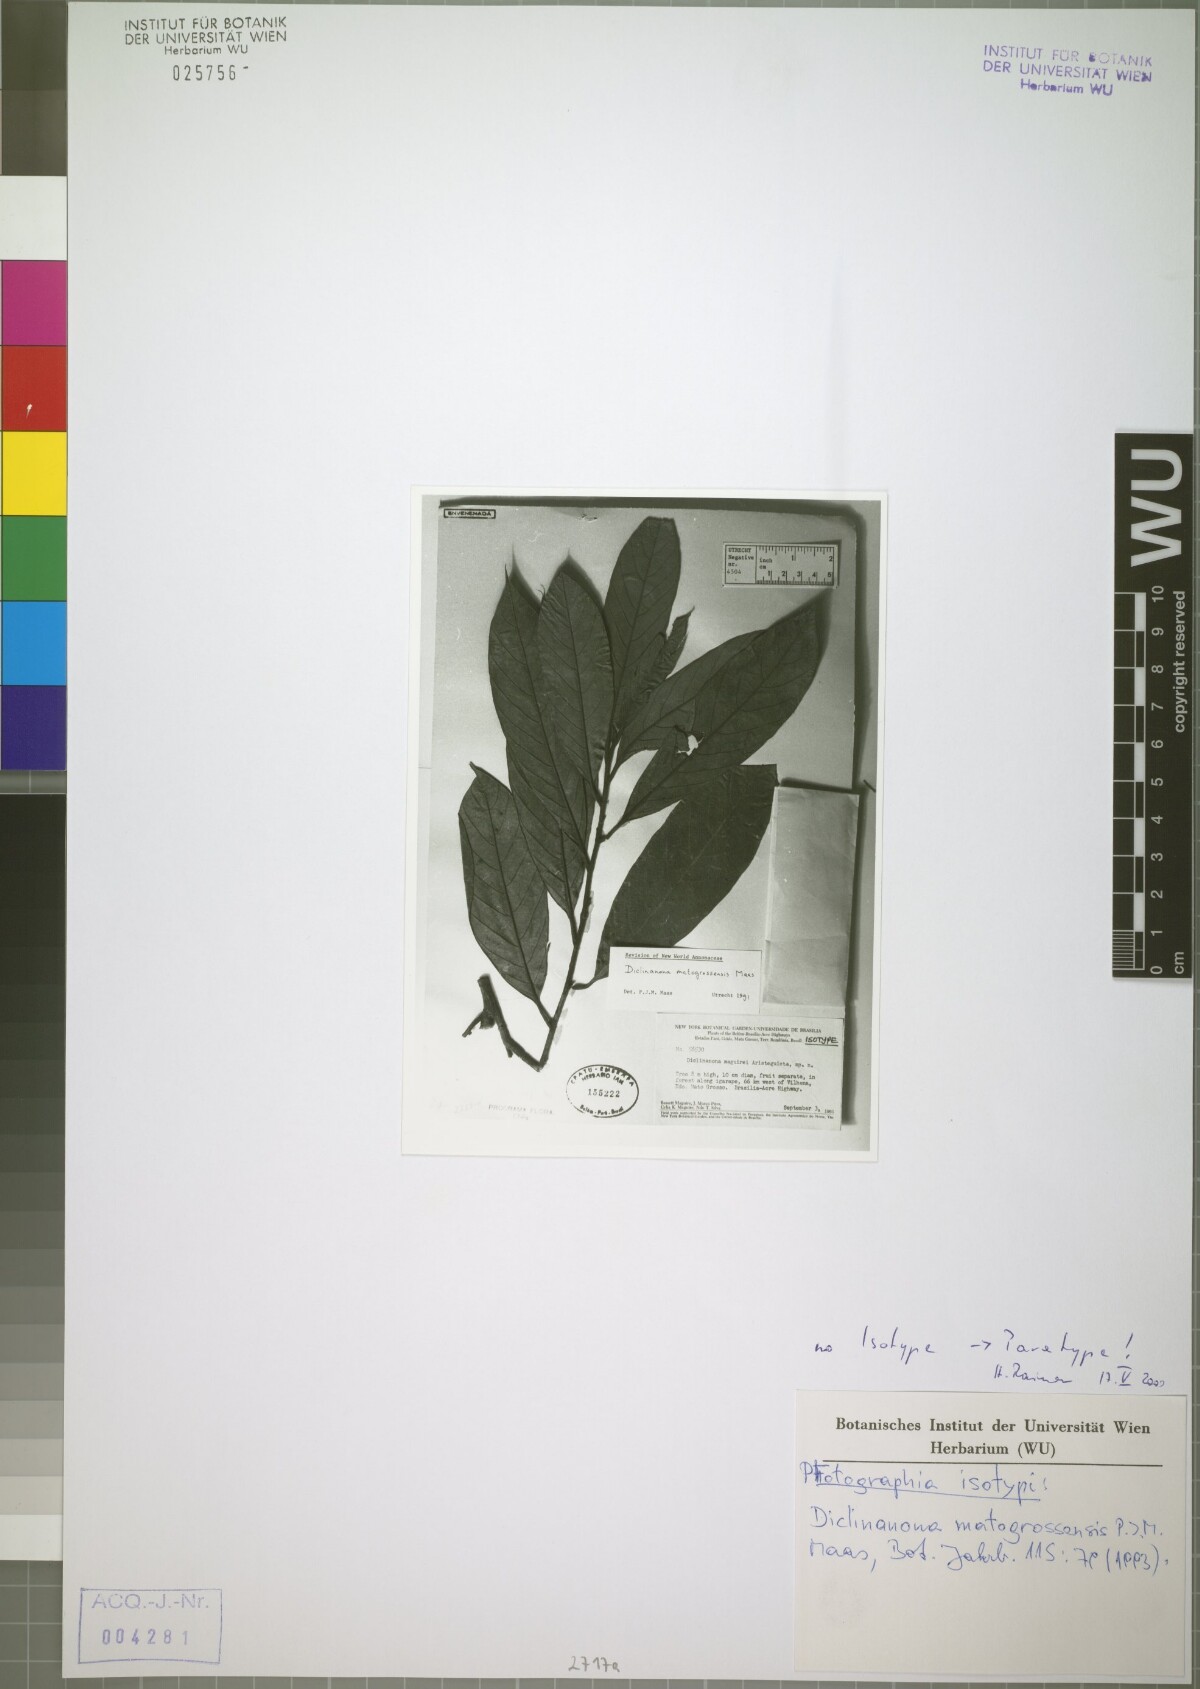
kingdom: Plantae
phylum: Tracheophyta
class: Magnoliopsida
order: Magnoliales
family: Annonaceae
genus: Diclinanona
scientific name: Diclinanona matogrossensis
